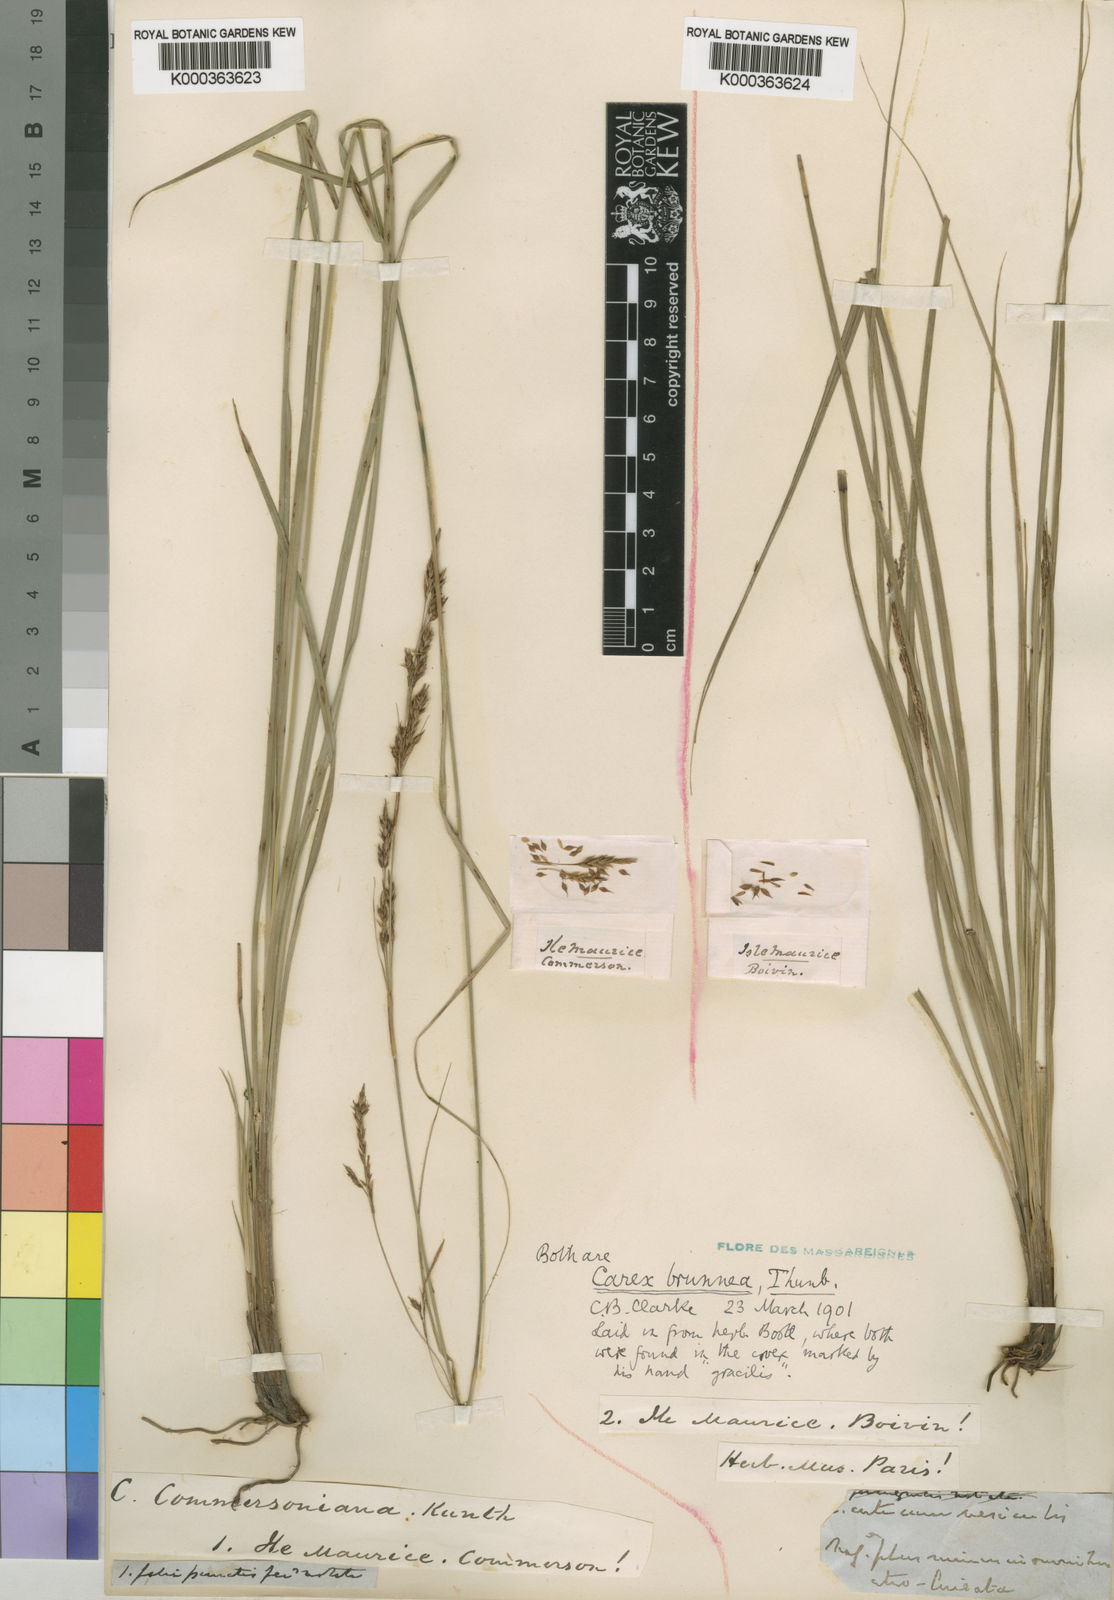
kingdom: Plantae
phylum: Tracheophyta
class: Liliopsida
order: Poales
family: Cyperaceae
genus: Carex
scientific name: Carex brunnea
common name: Greater brown sedge
